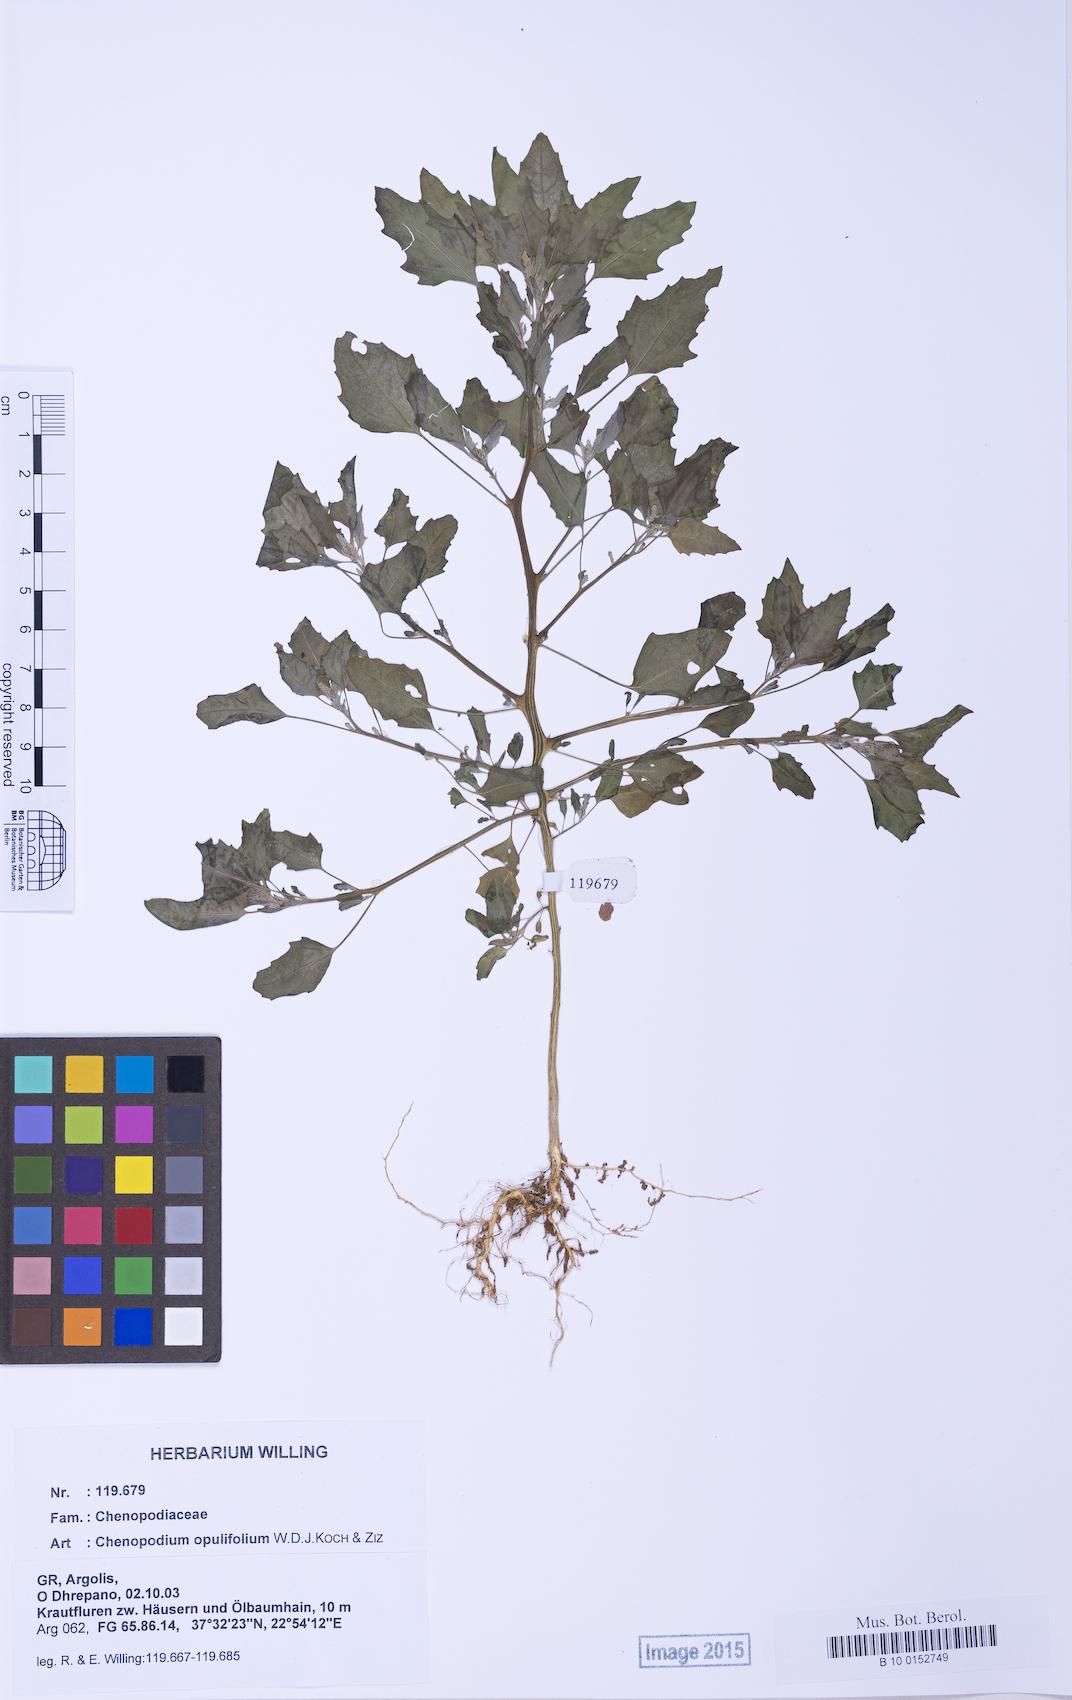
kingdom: Plantae
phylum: Tracheophyta
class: Magnoliopsida
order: Caryophyllales
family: Amaranthaceae
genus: Chenopodium
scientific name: Chenopodium album
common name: Fat-hen
